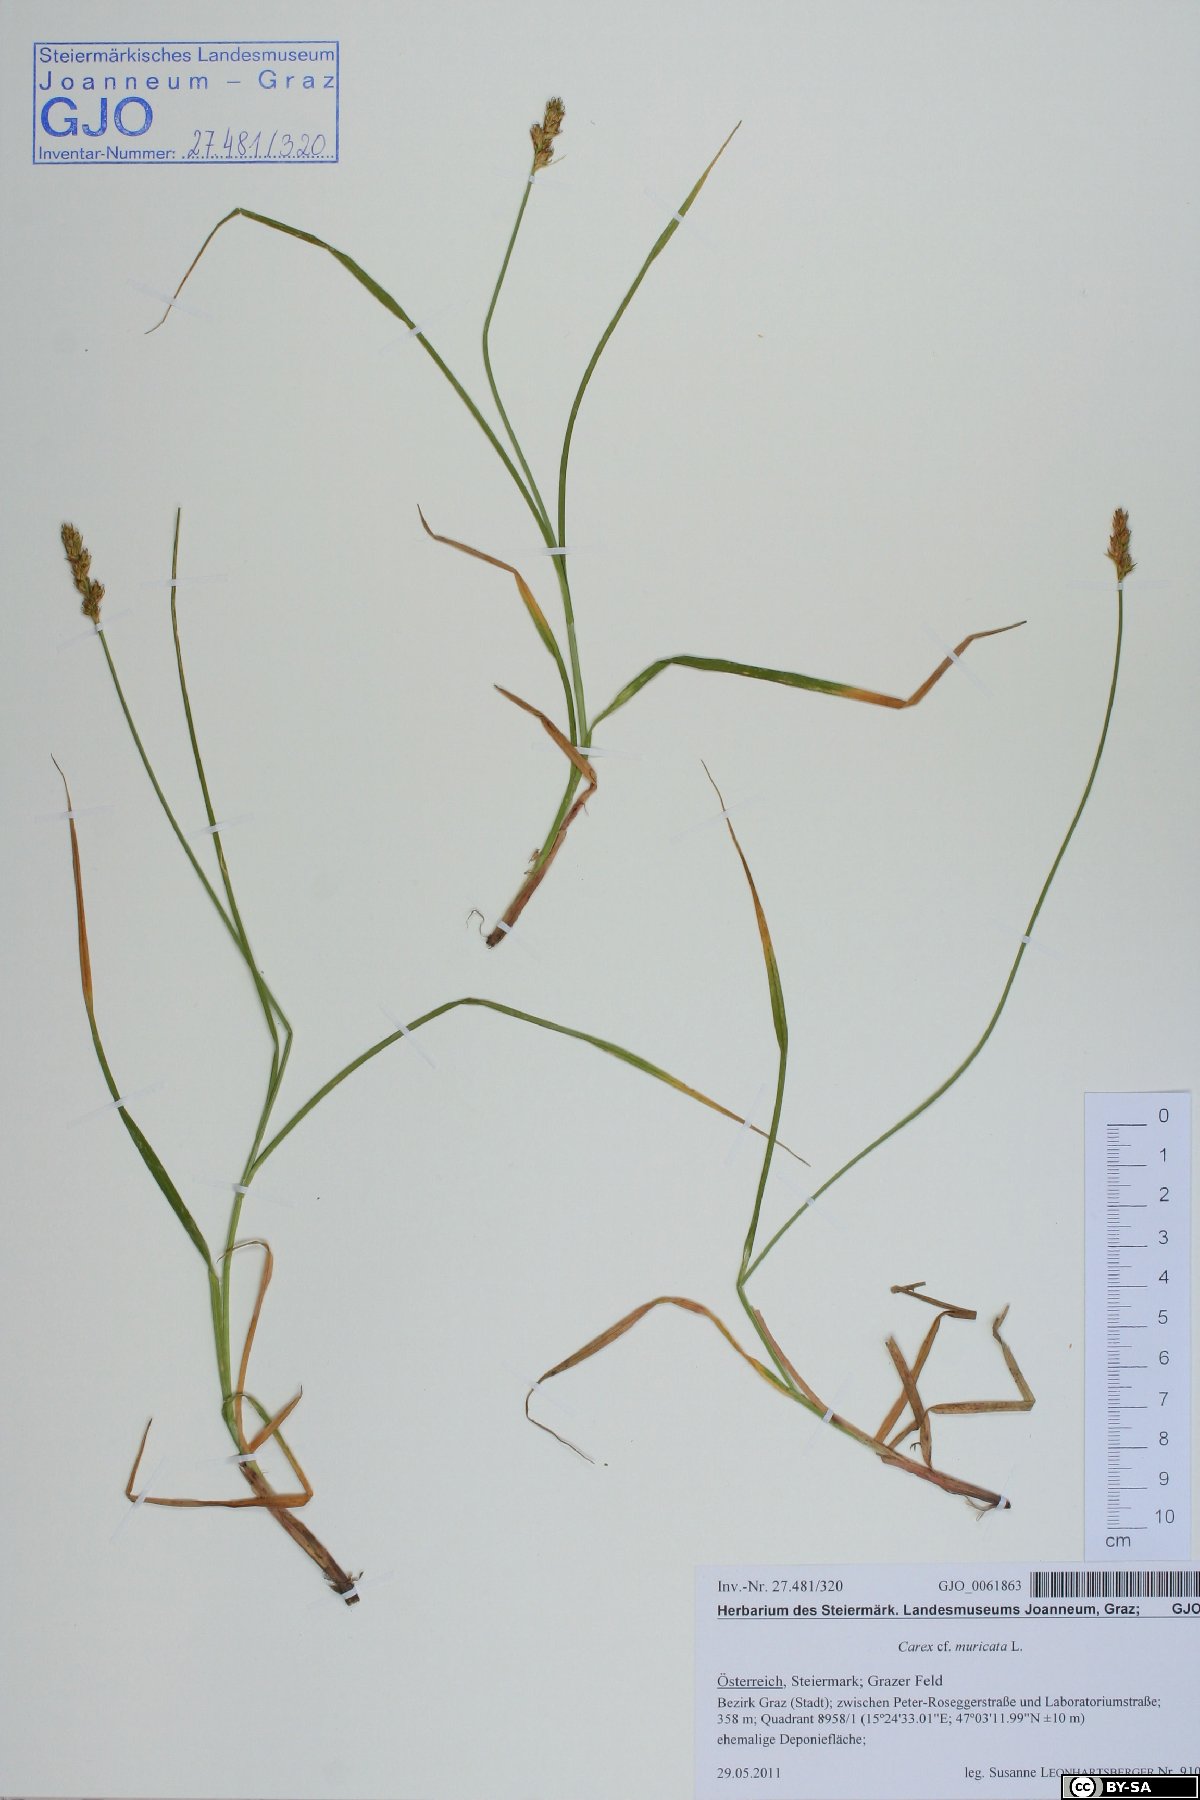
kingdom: Plantae
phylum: Tracheophyta
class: Liliopsida
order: Poales
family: Cyperaceae
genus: Carex
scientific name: Carex muricata
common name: Rough sedge
